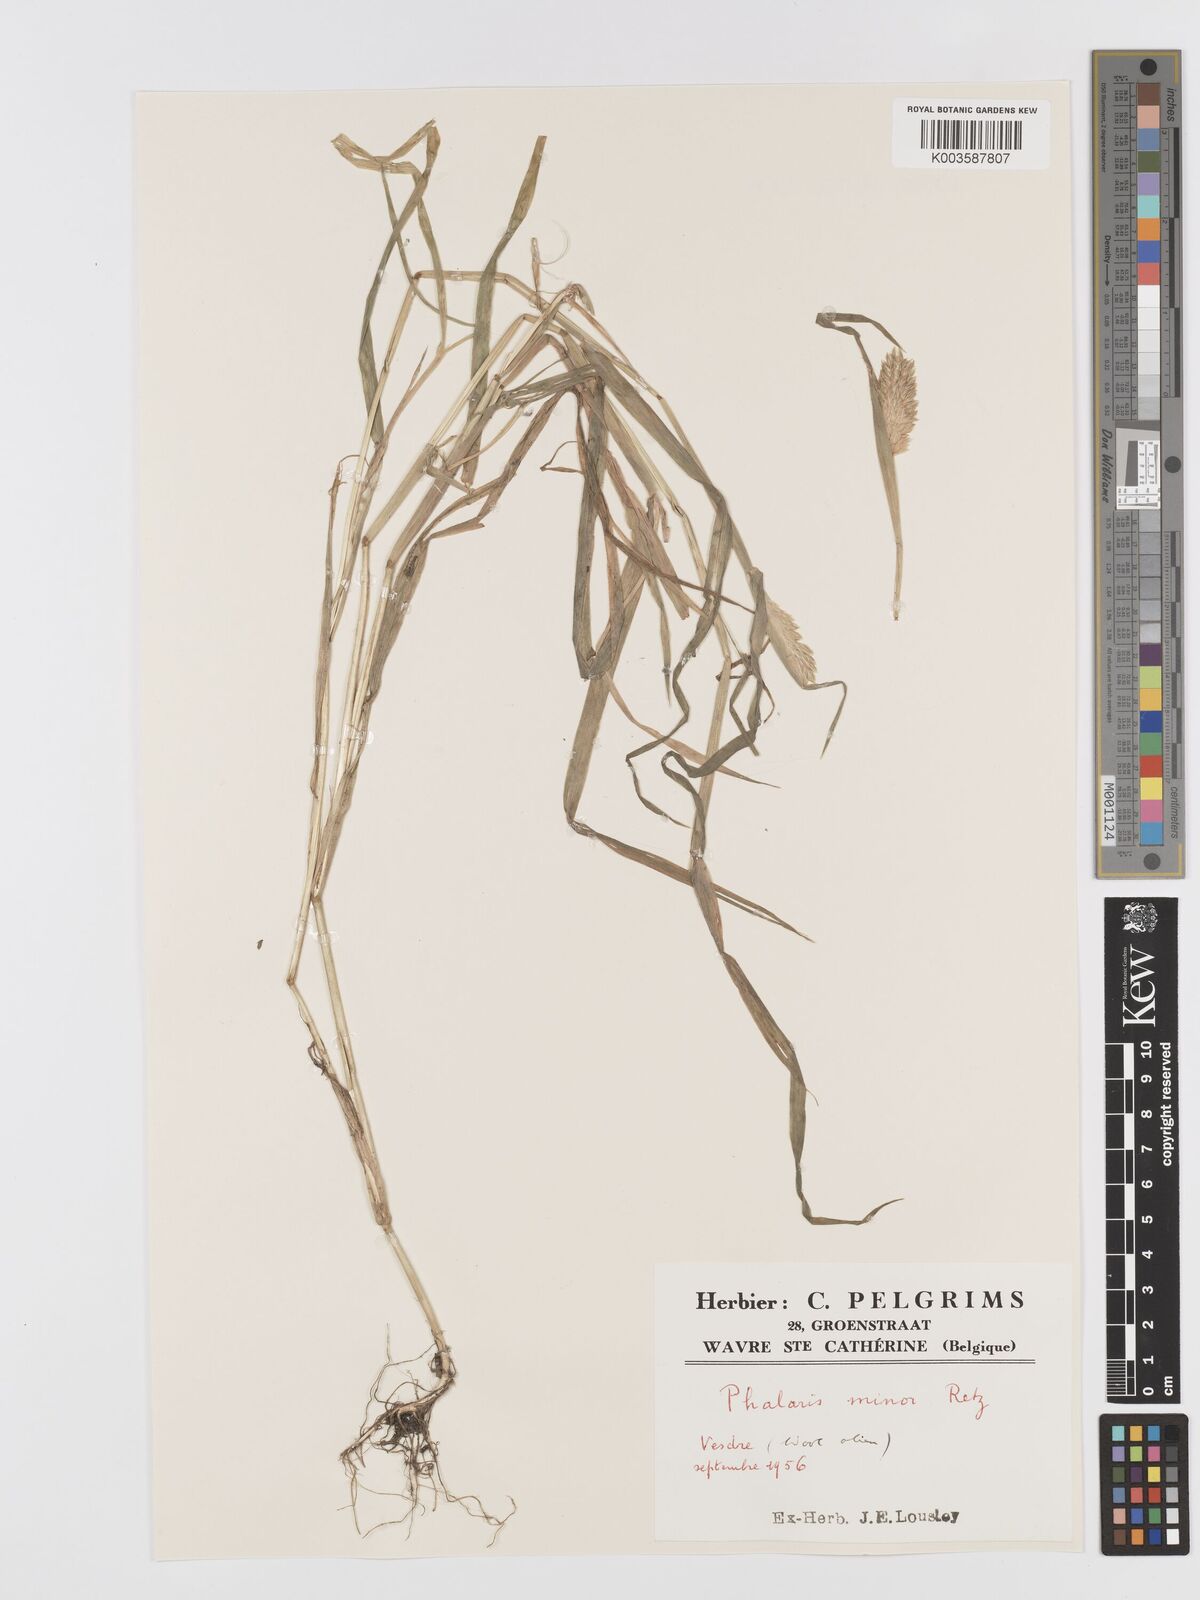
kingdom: Plantae
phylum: Tracheophyta
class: Liliopsida
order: Poales
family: Poaceae
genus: Phalaris
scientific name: Phalaris minor
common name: Littleseed canarygrass
